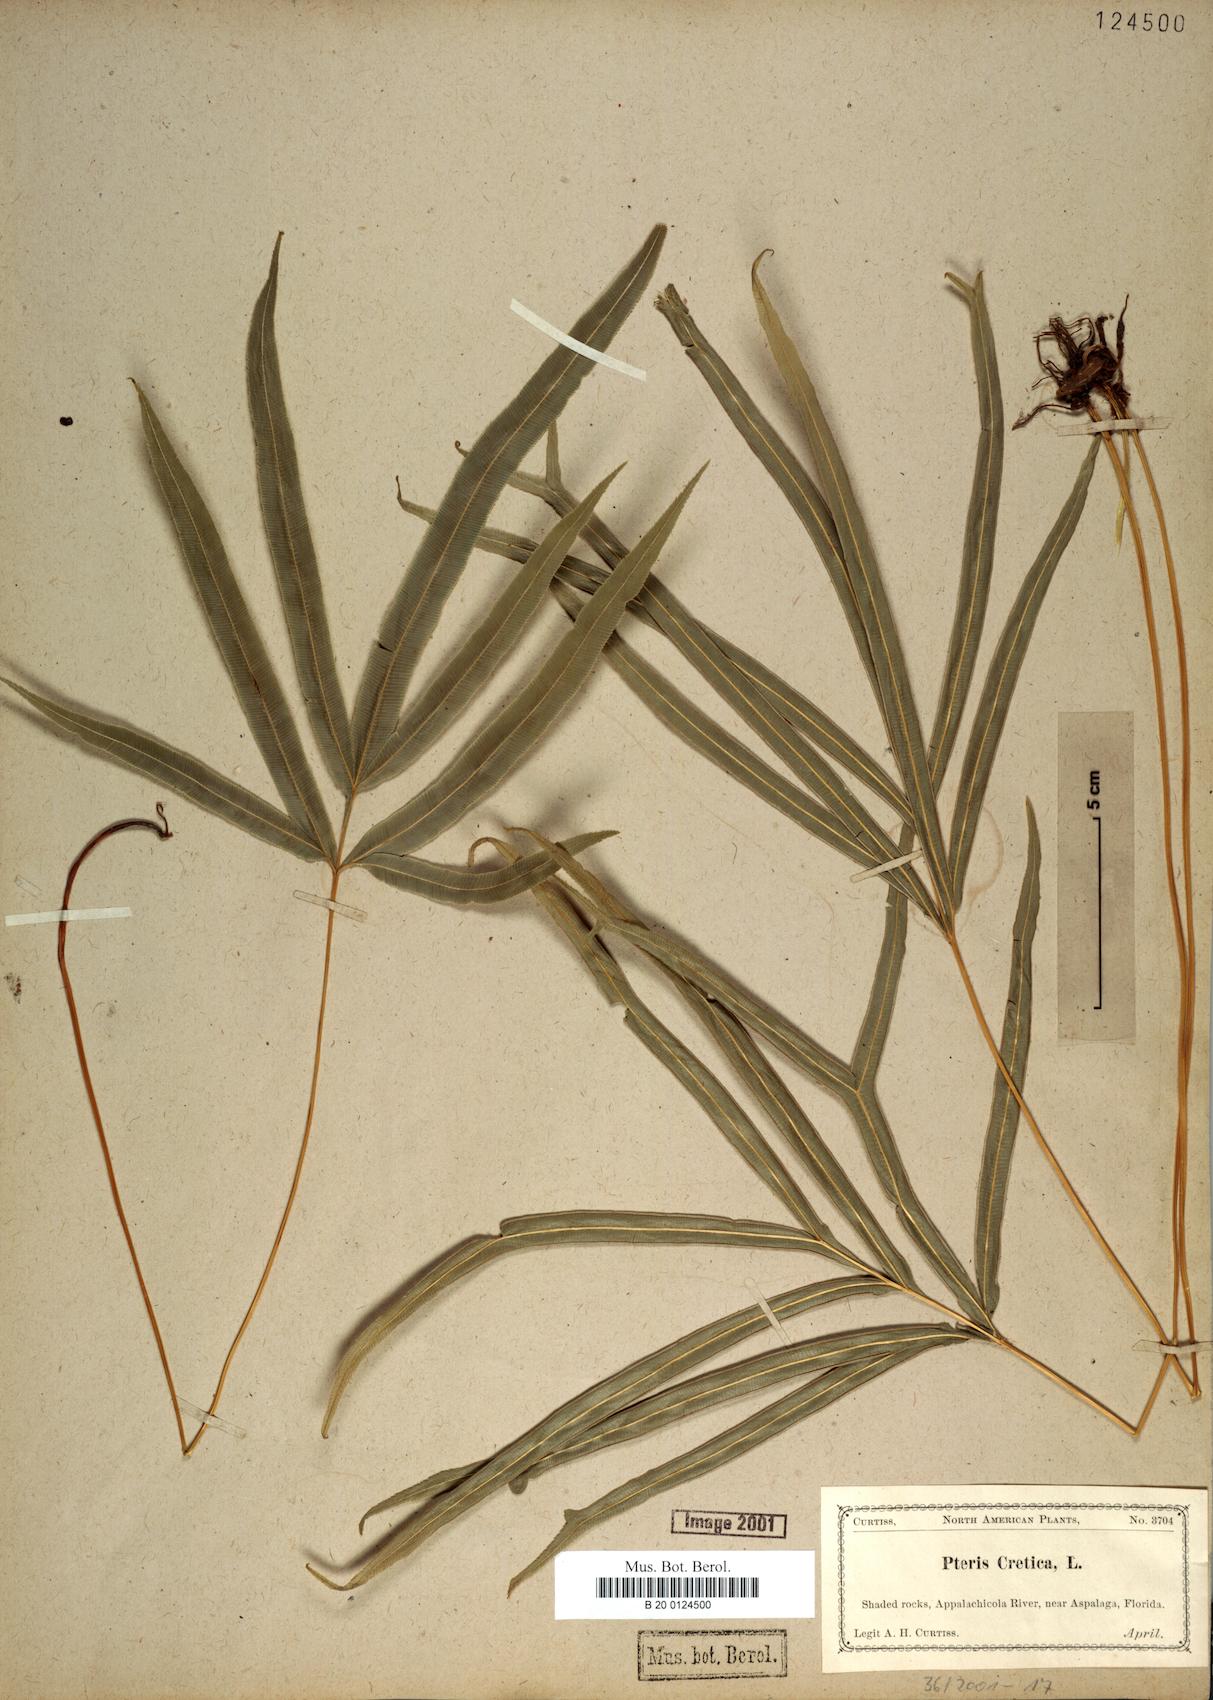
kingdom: Plantae
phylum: Tracheophyta
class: Polypodiopsida
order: Polypodiales
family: Pteridaceae
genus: Pteris
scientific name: Pteris cretica
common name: Ribbon fern
